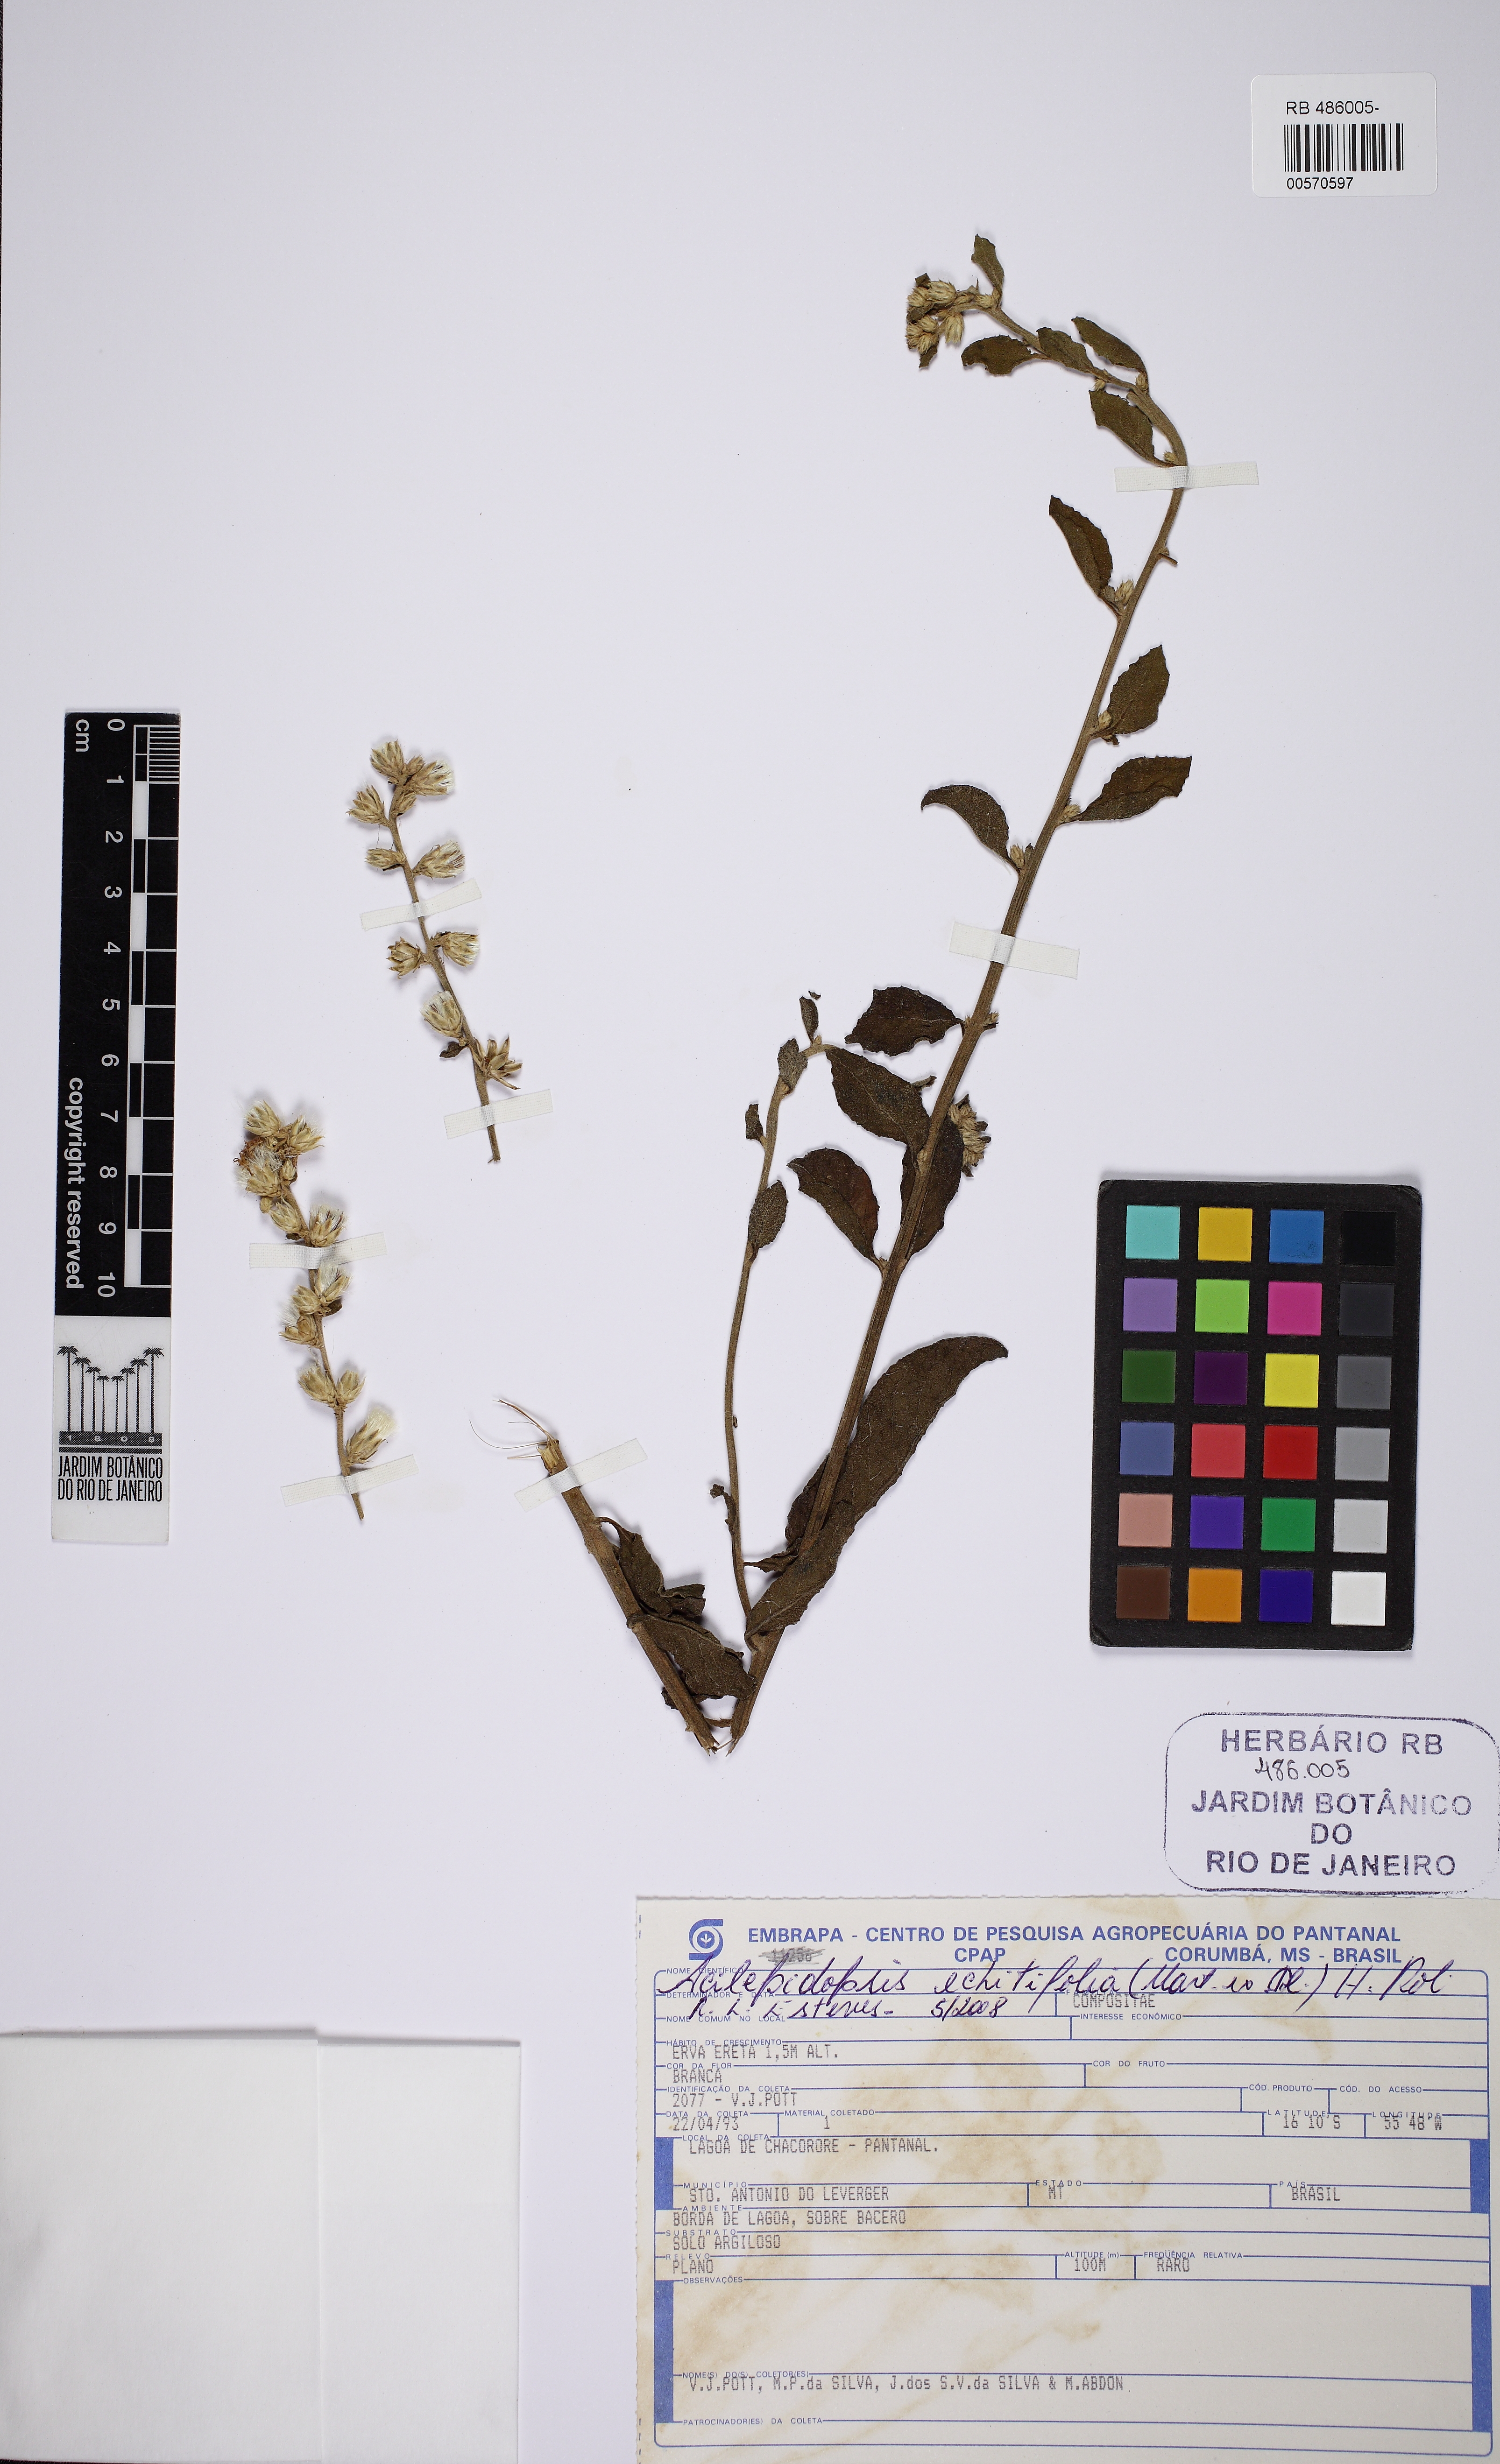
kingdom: Plantae
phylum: Tracheophyta
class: Magnoliopsida
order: Asterales
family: Asteraceae
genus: Acilepidopsis
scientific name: Acilepidopsis echitifolia
